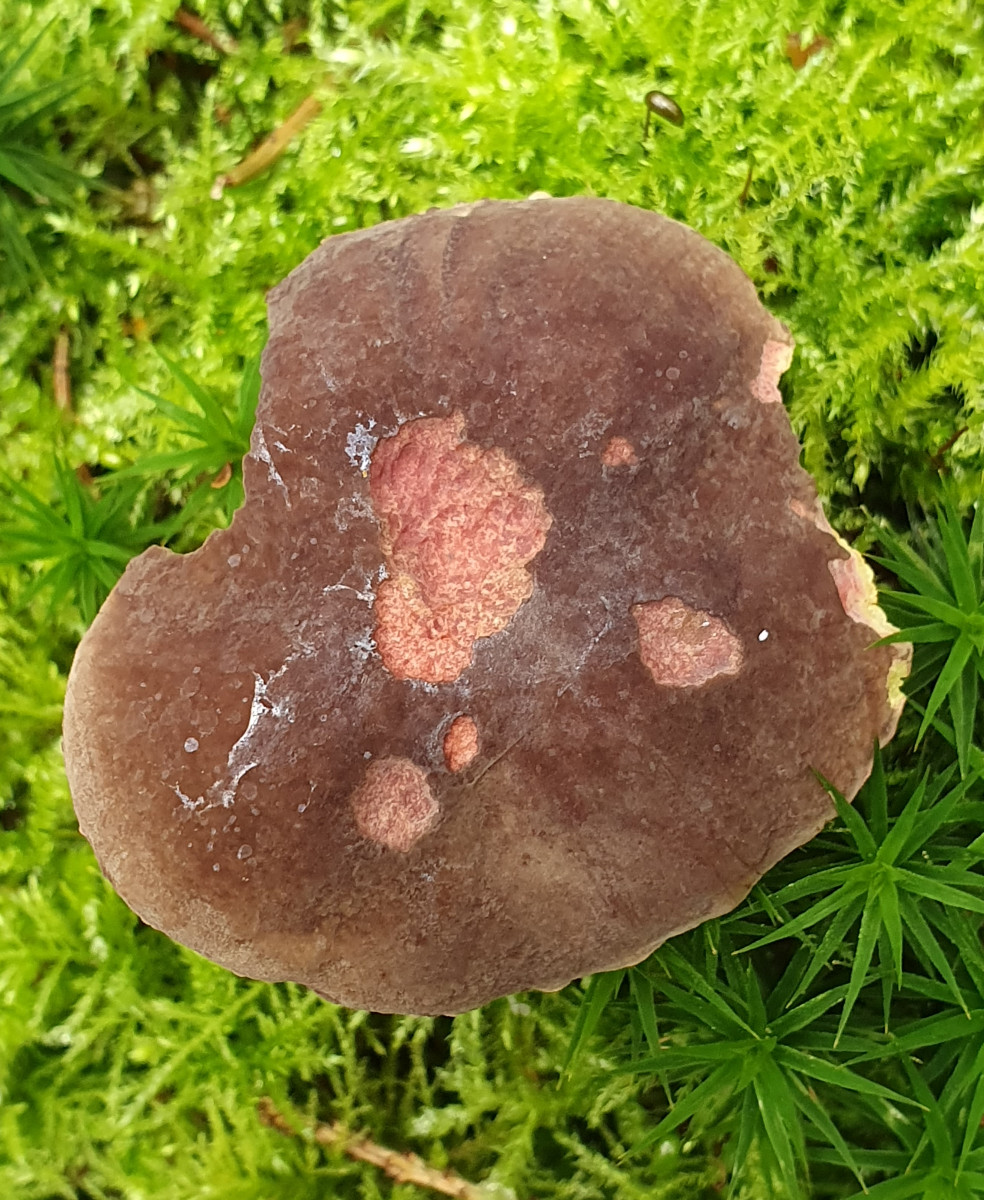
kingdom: Fungi
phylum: Basidiomycota
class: Agaricomycetes
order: Boletales
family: Boletaceae
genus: Xerocomellus
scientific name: Xerocomellus pruinatus
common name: dugget rørhat
